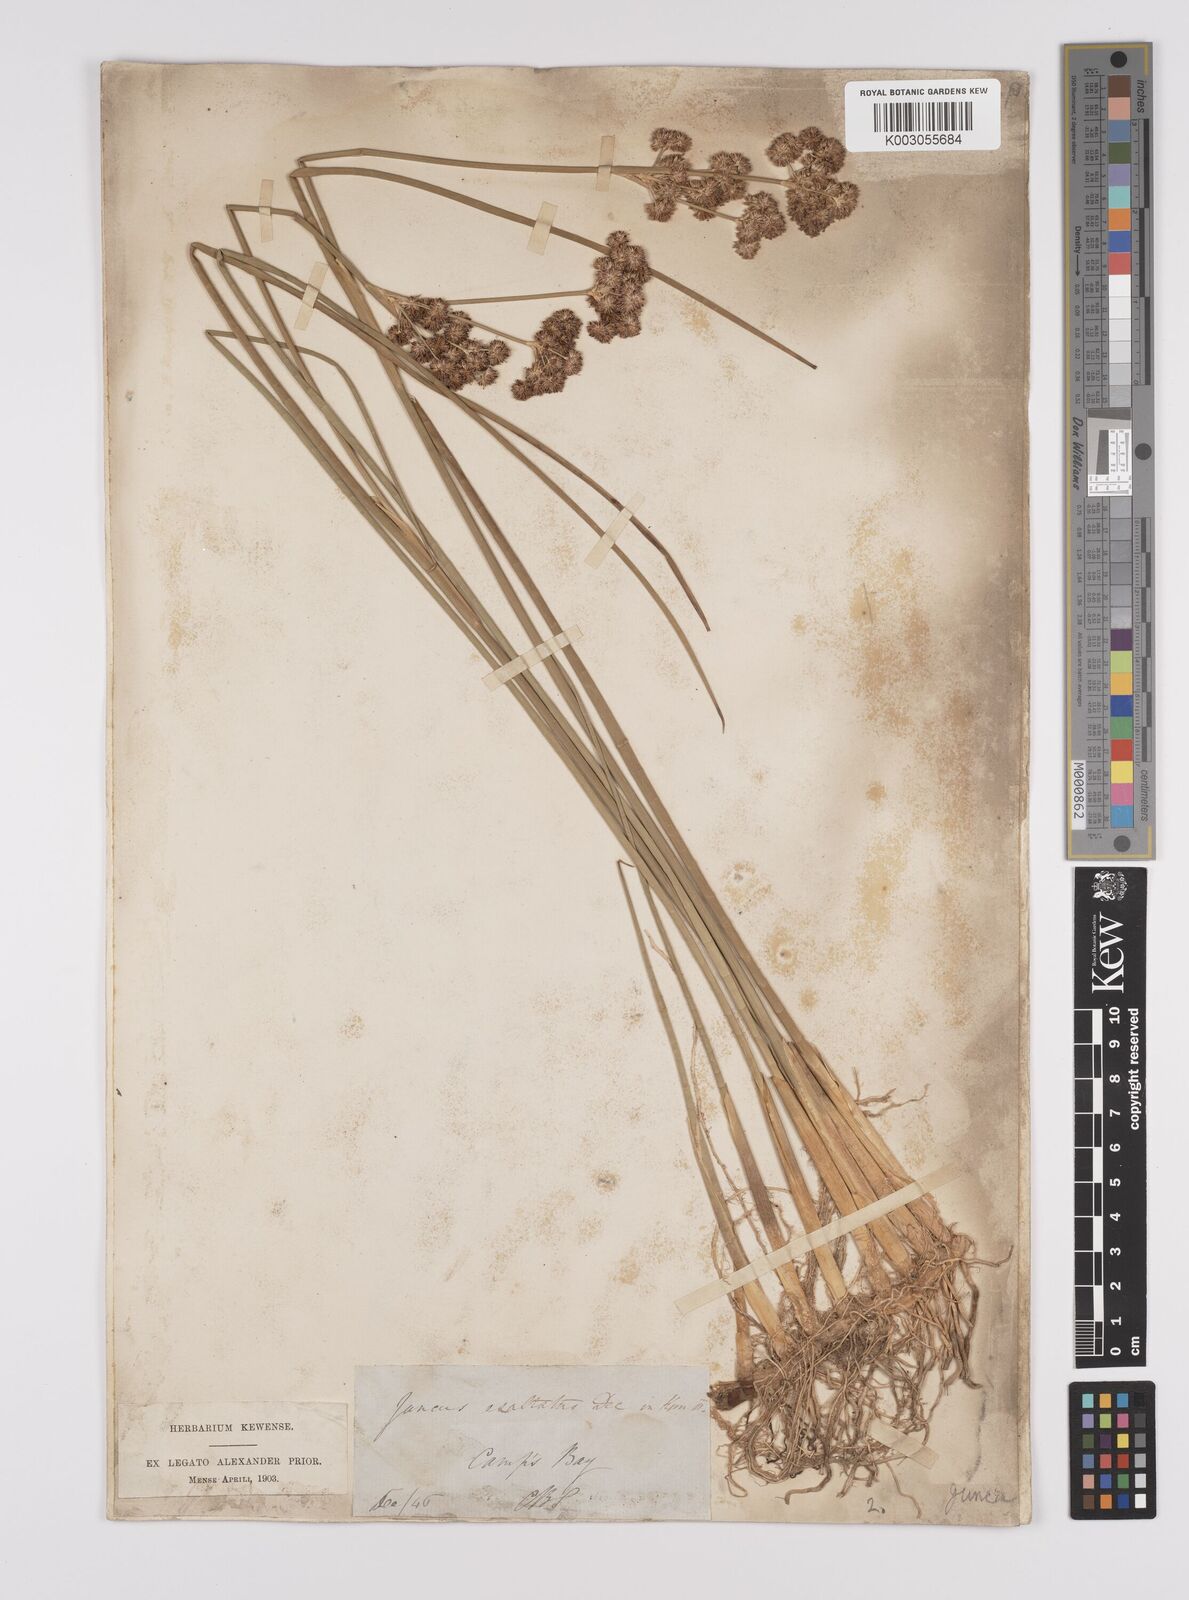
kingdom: Plantae
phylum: Tracheophyta
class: Liliopsida
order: Poales
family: Juncaceae
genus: Juncus
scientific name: Juncus punctorius
